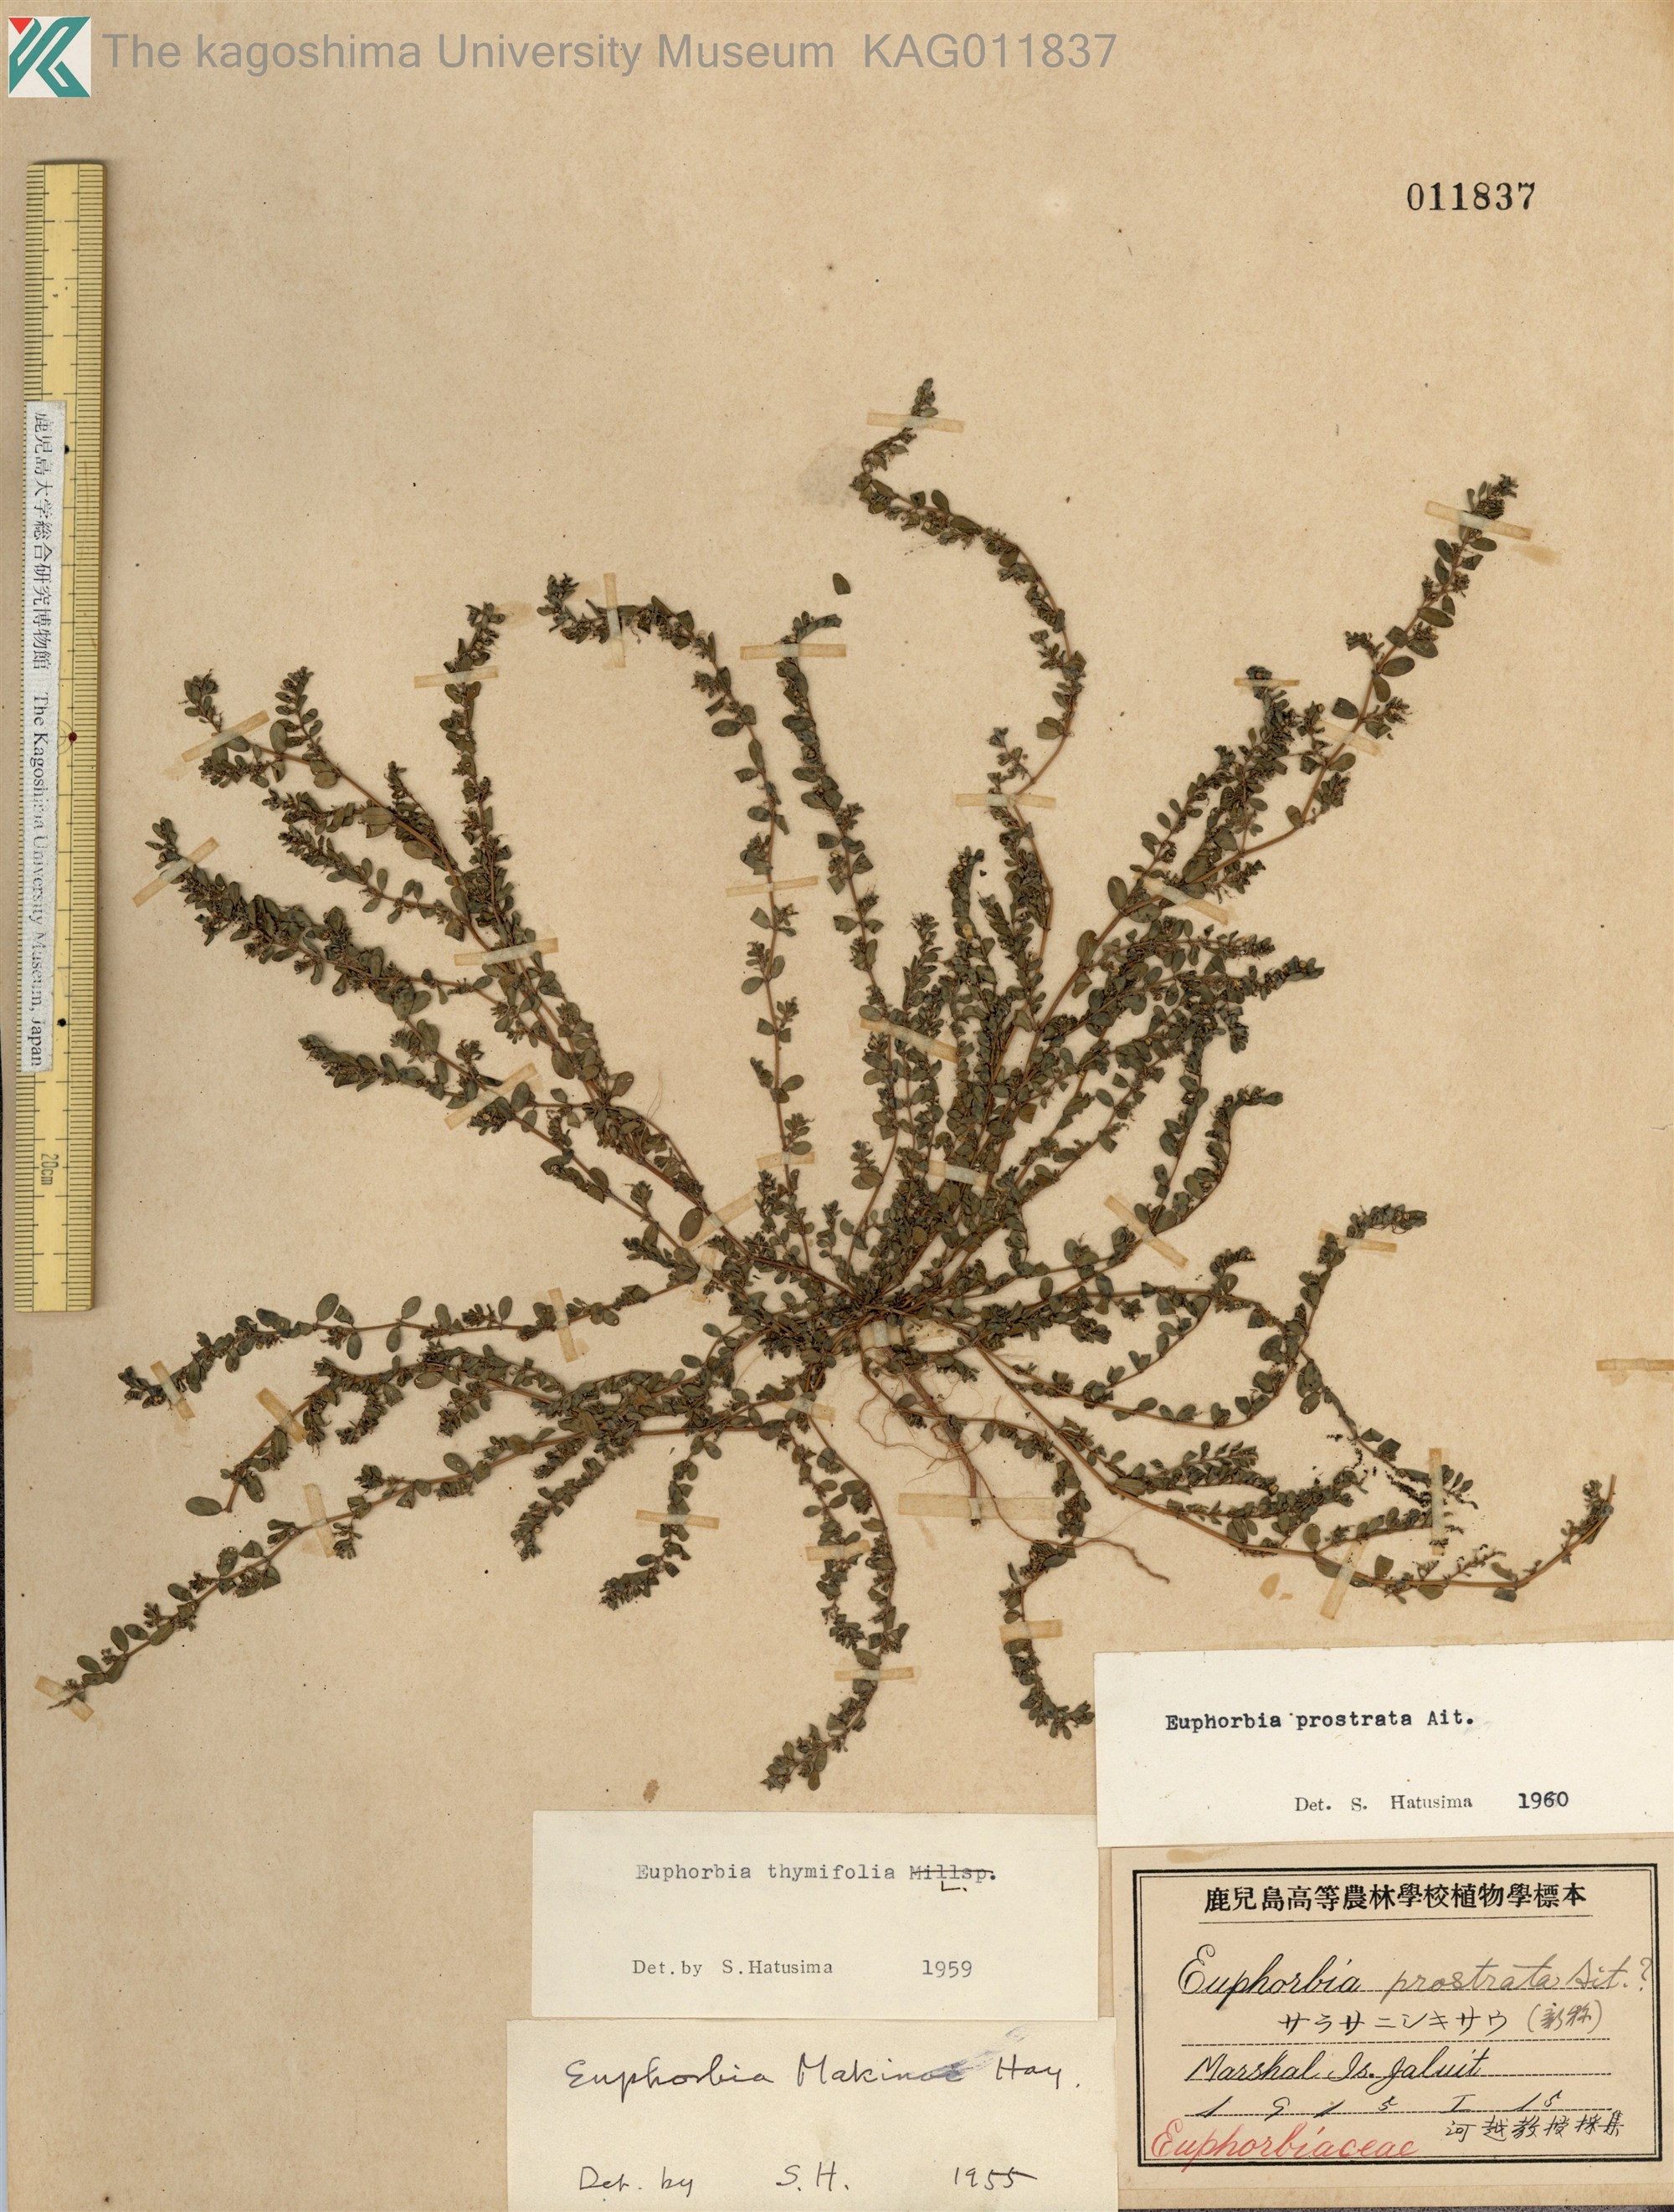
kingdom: Plantae
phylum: Tracheophyta
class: Magnoliopsida
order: Malpighiales
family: Euphorbiaceae
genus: Euphorbia
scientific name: Euphorbia prostrata
